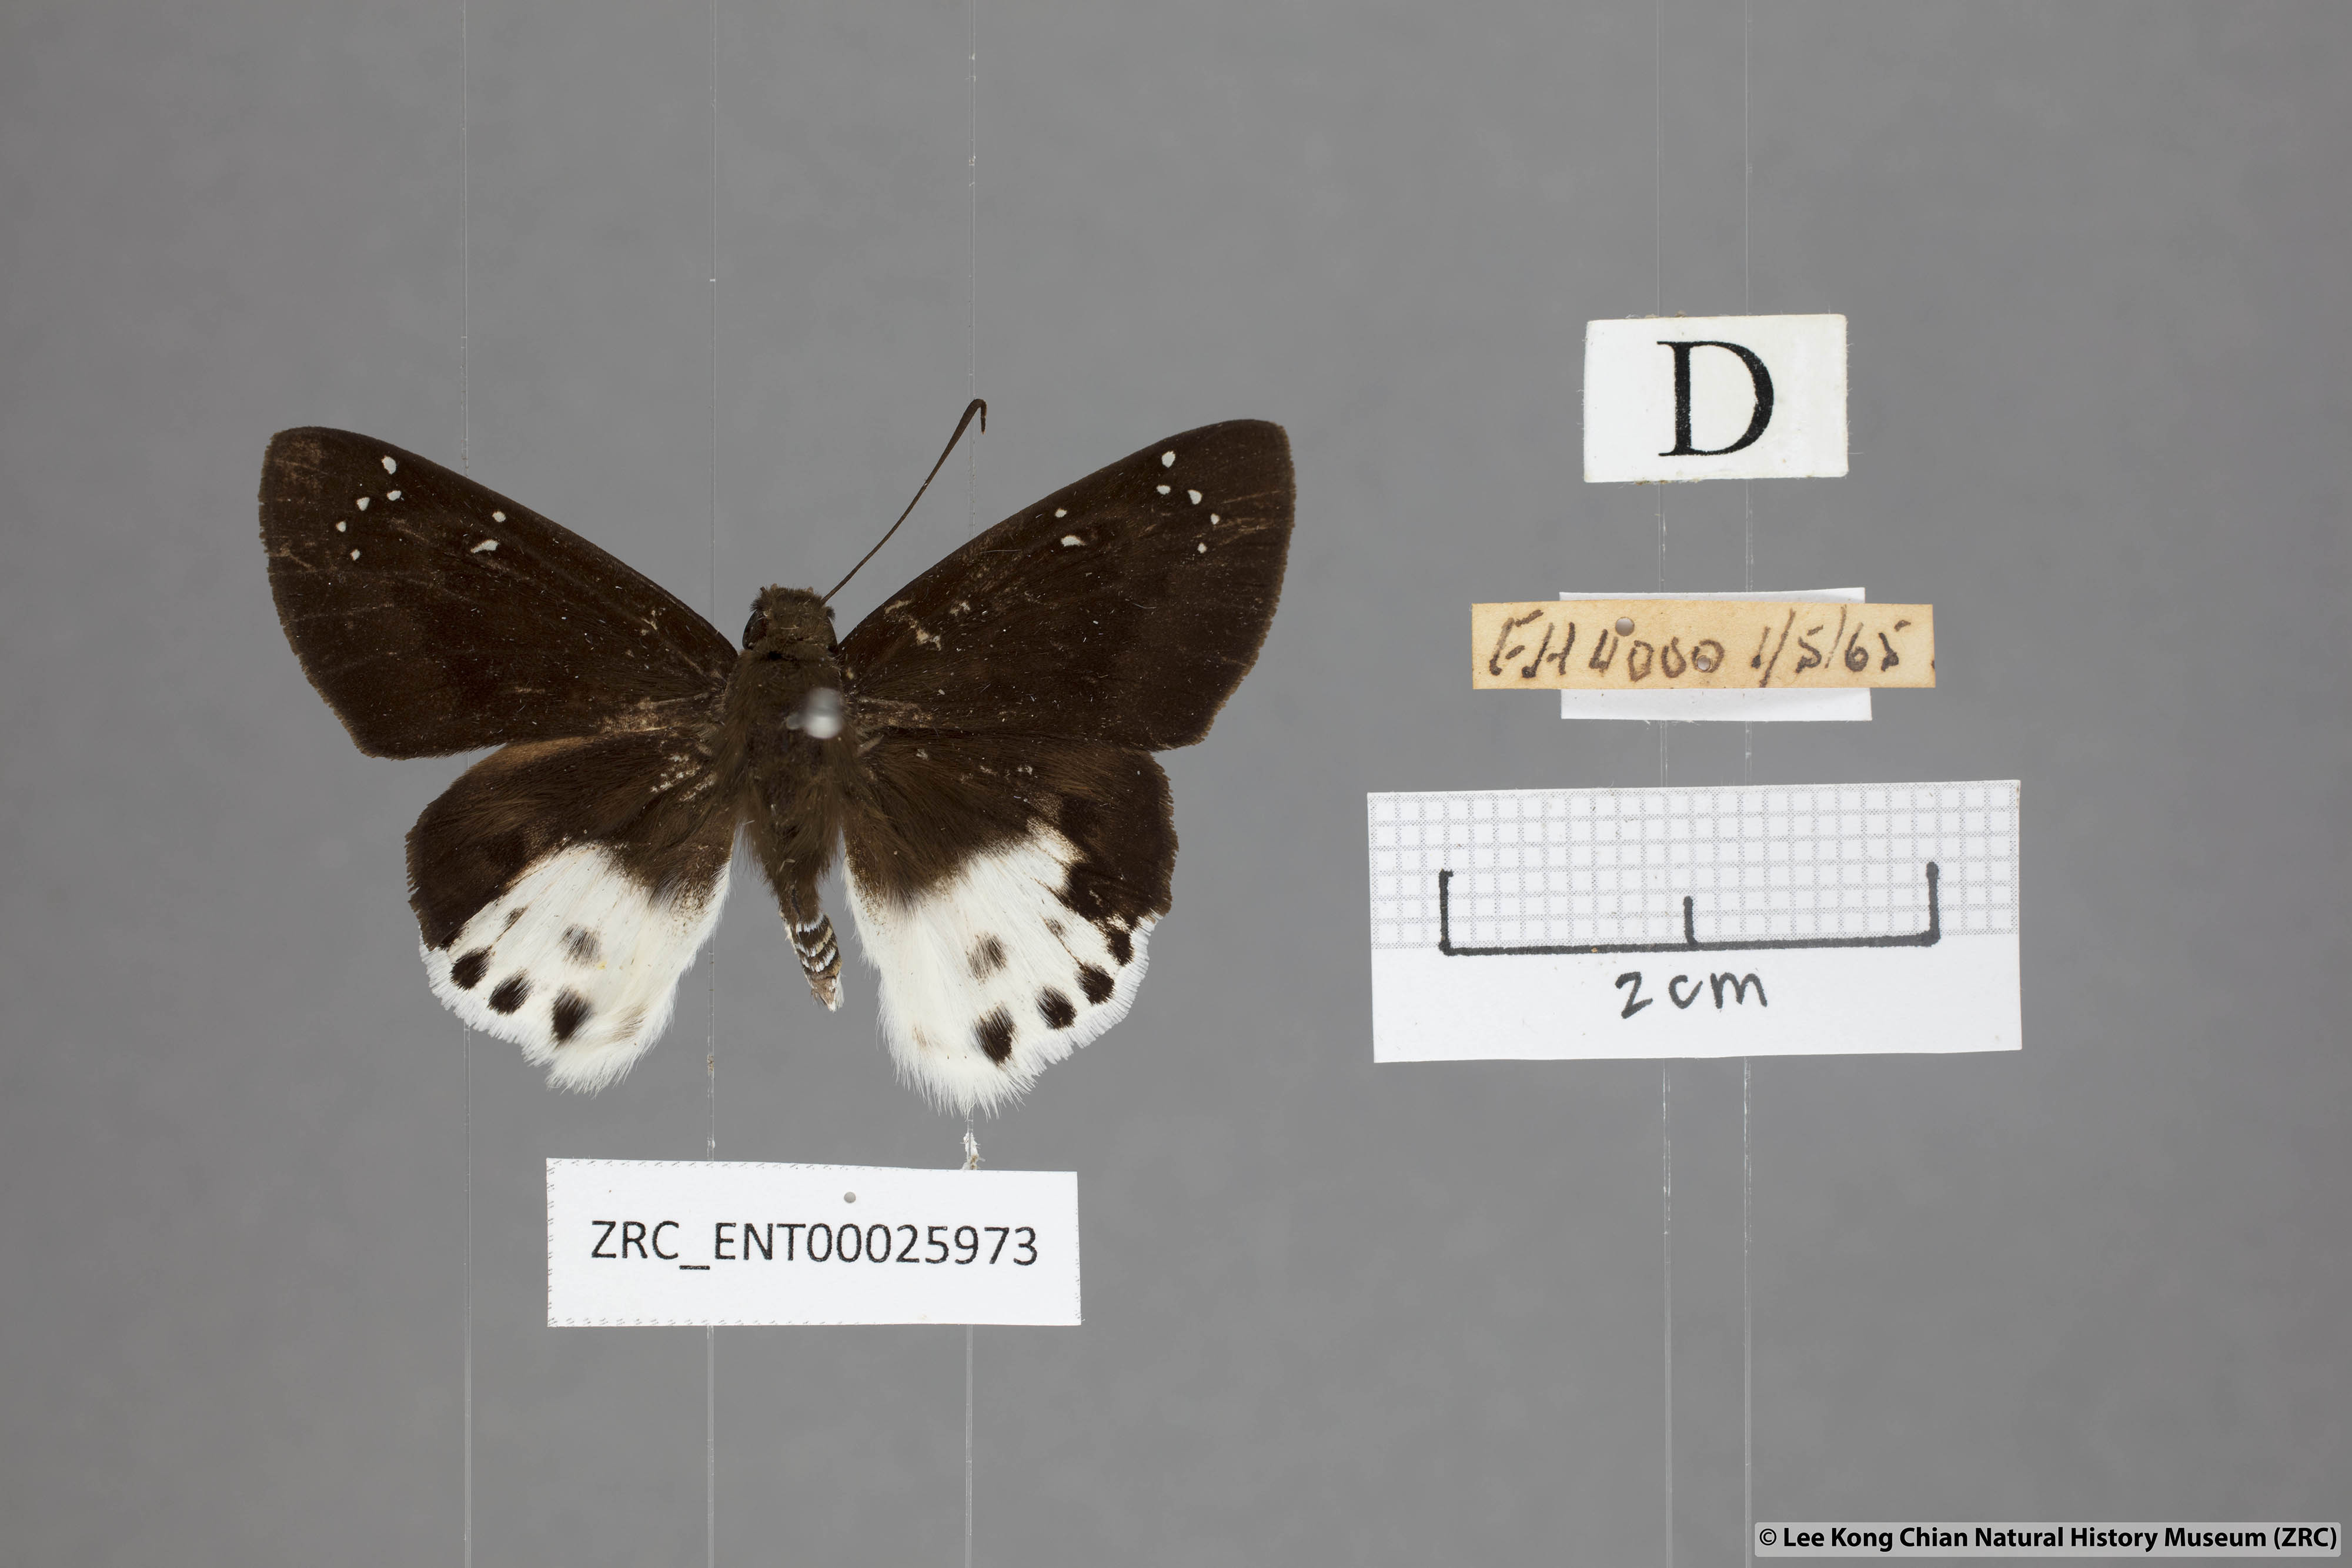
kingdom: Animalia
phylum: Arthropoda
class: Insecta
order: Lepidoptera
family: Hesperiidae
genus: Tagiades
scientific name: Tagiades cohaerens
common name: White-striped snow flat
